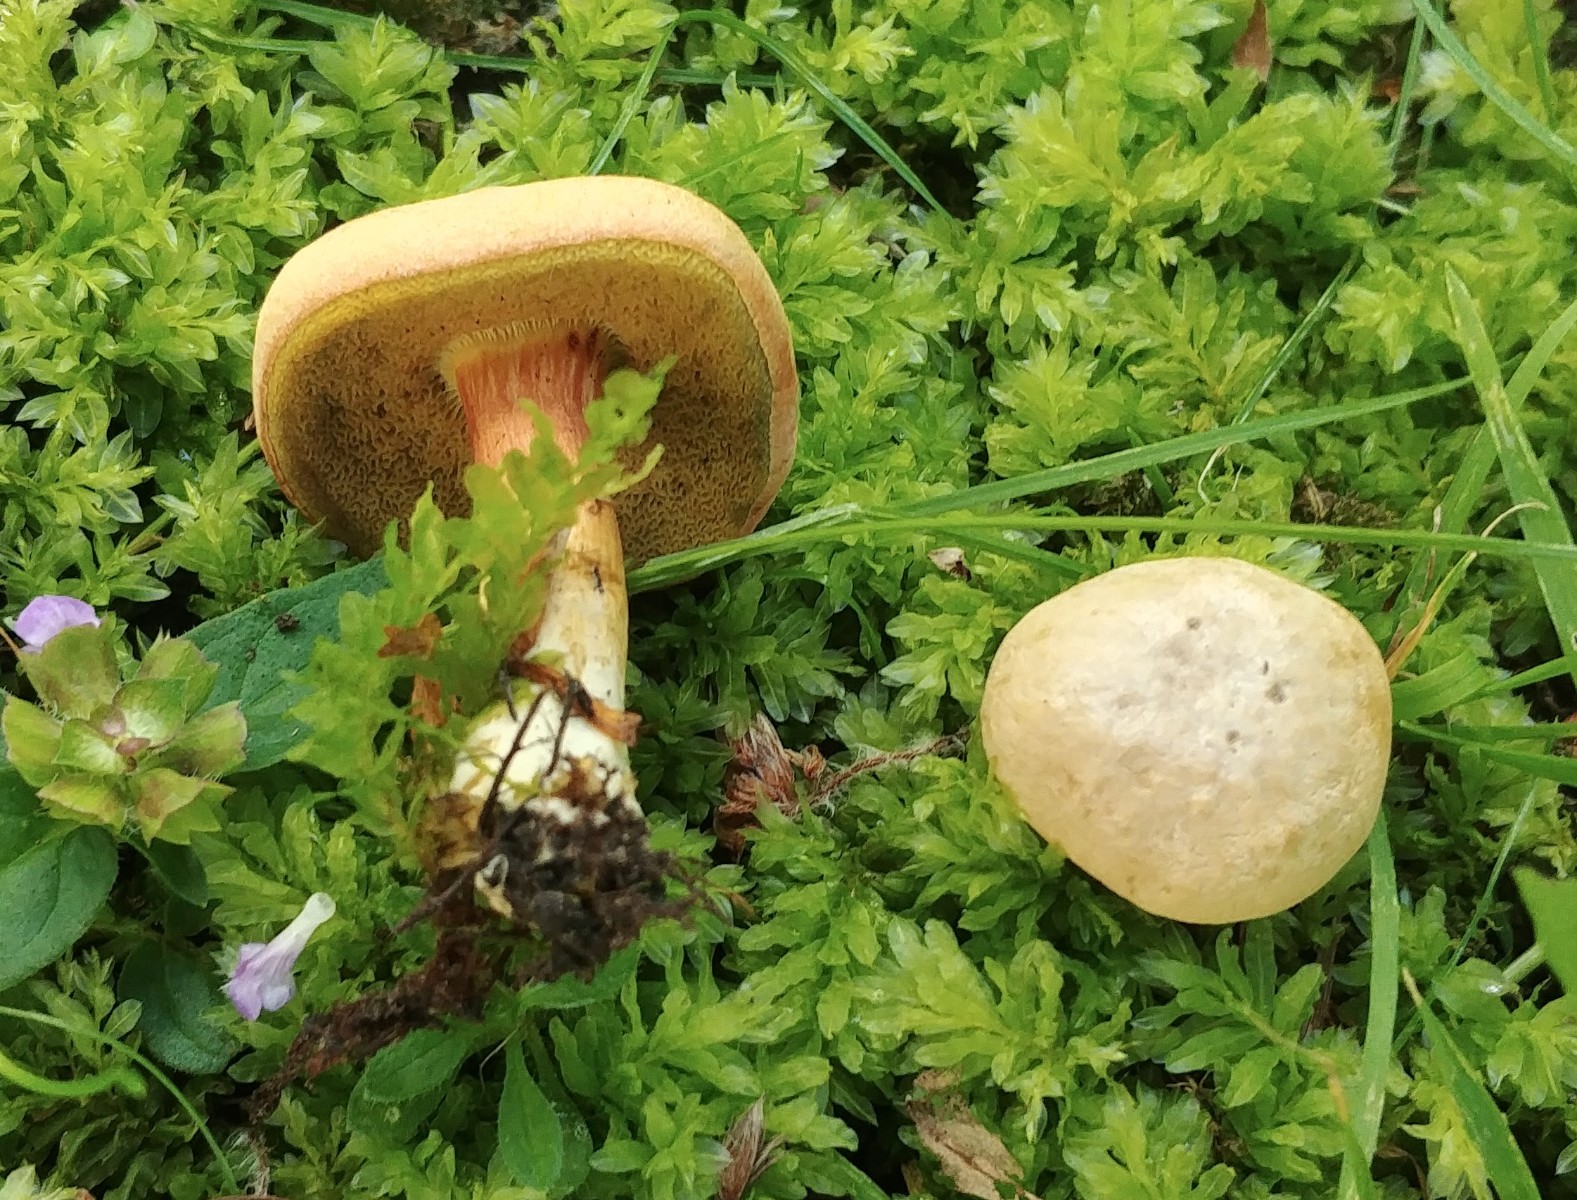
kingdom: Fungi
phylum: Basidiomycota
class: Agaricomycetes
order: Boletales
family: Boletaceae
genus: Hortiboletus
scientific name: Hortiboletus bubalinus
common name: aurora-rørhat
